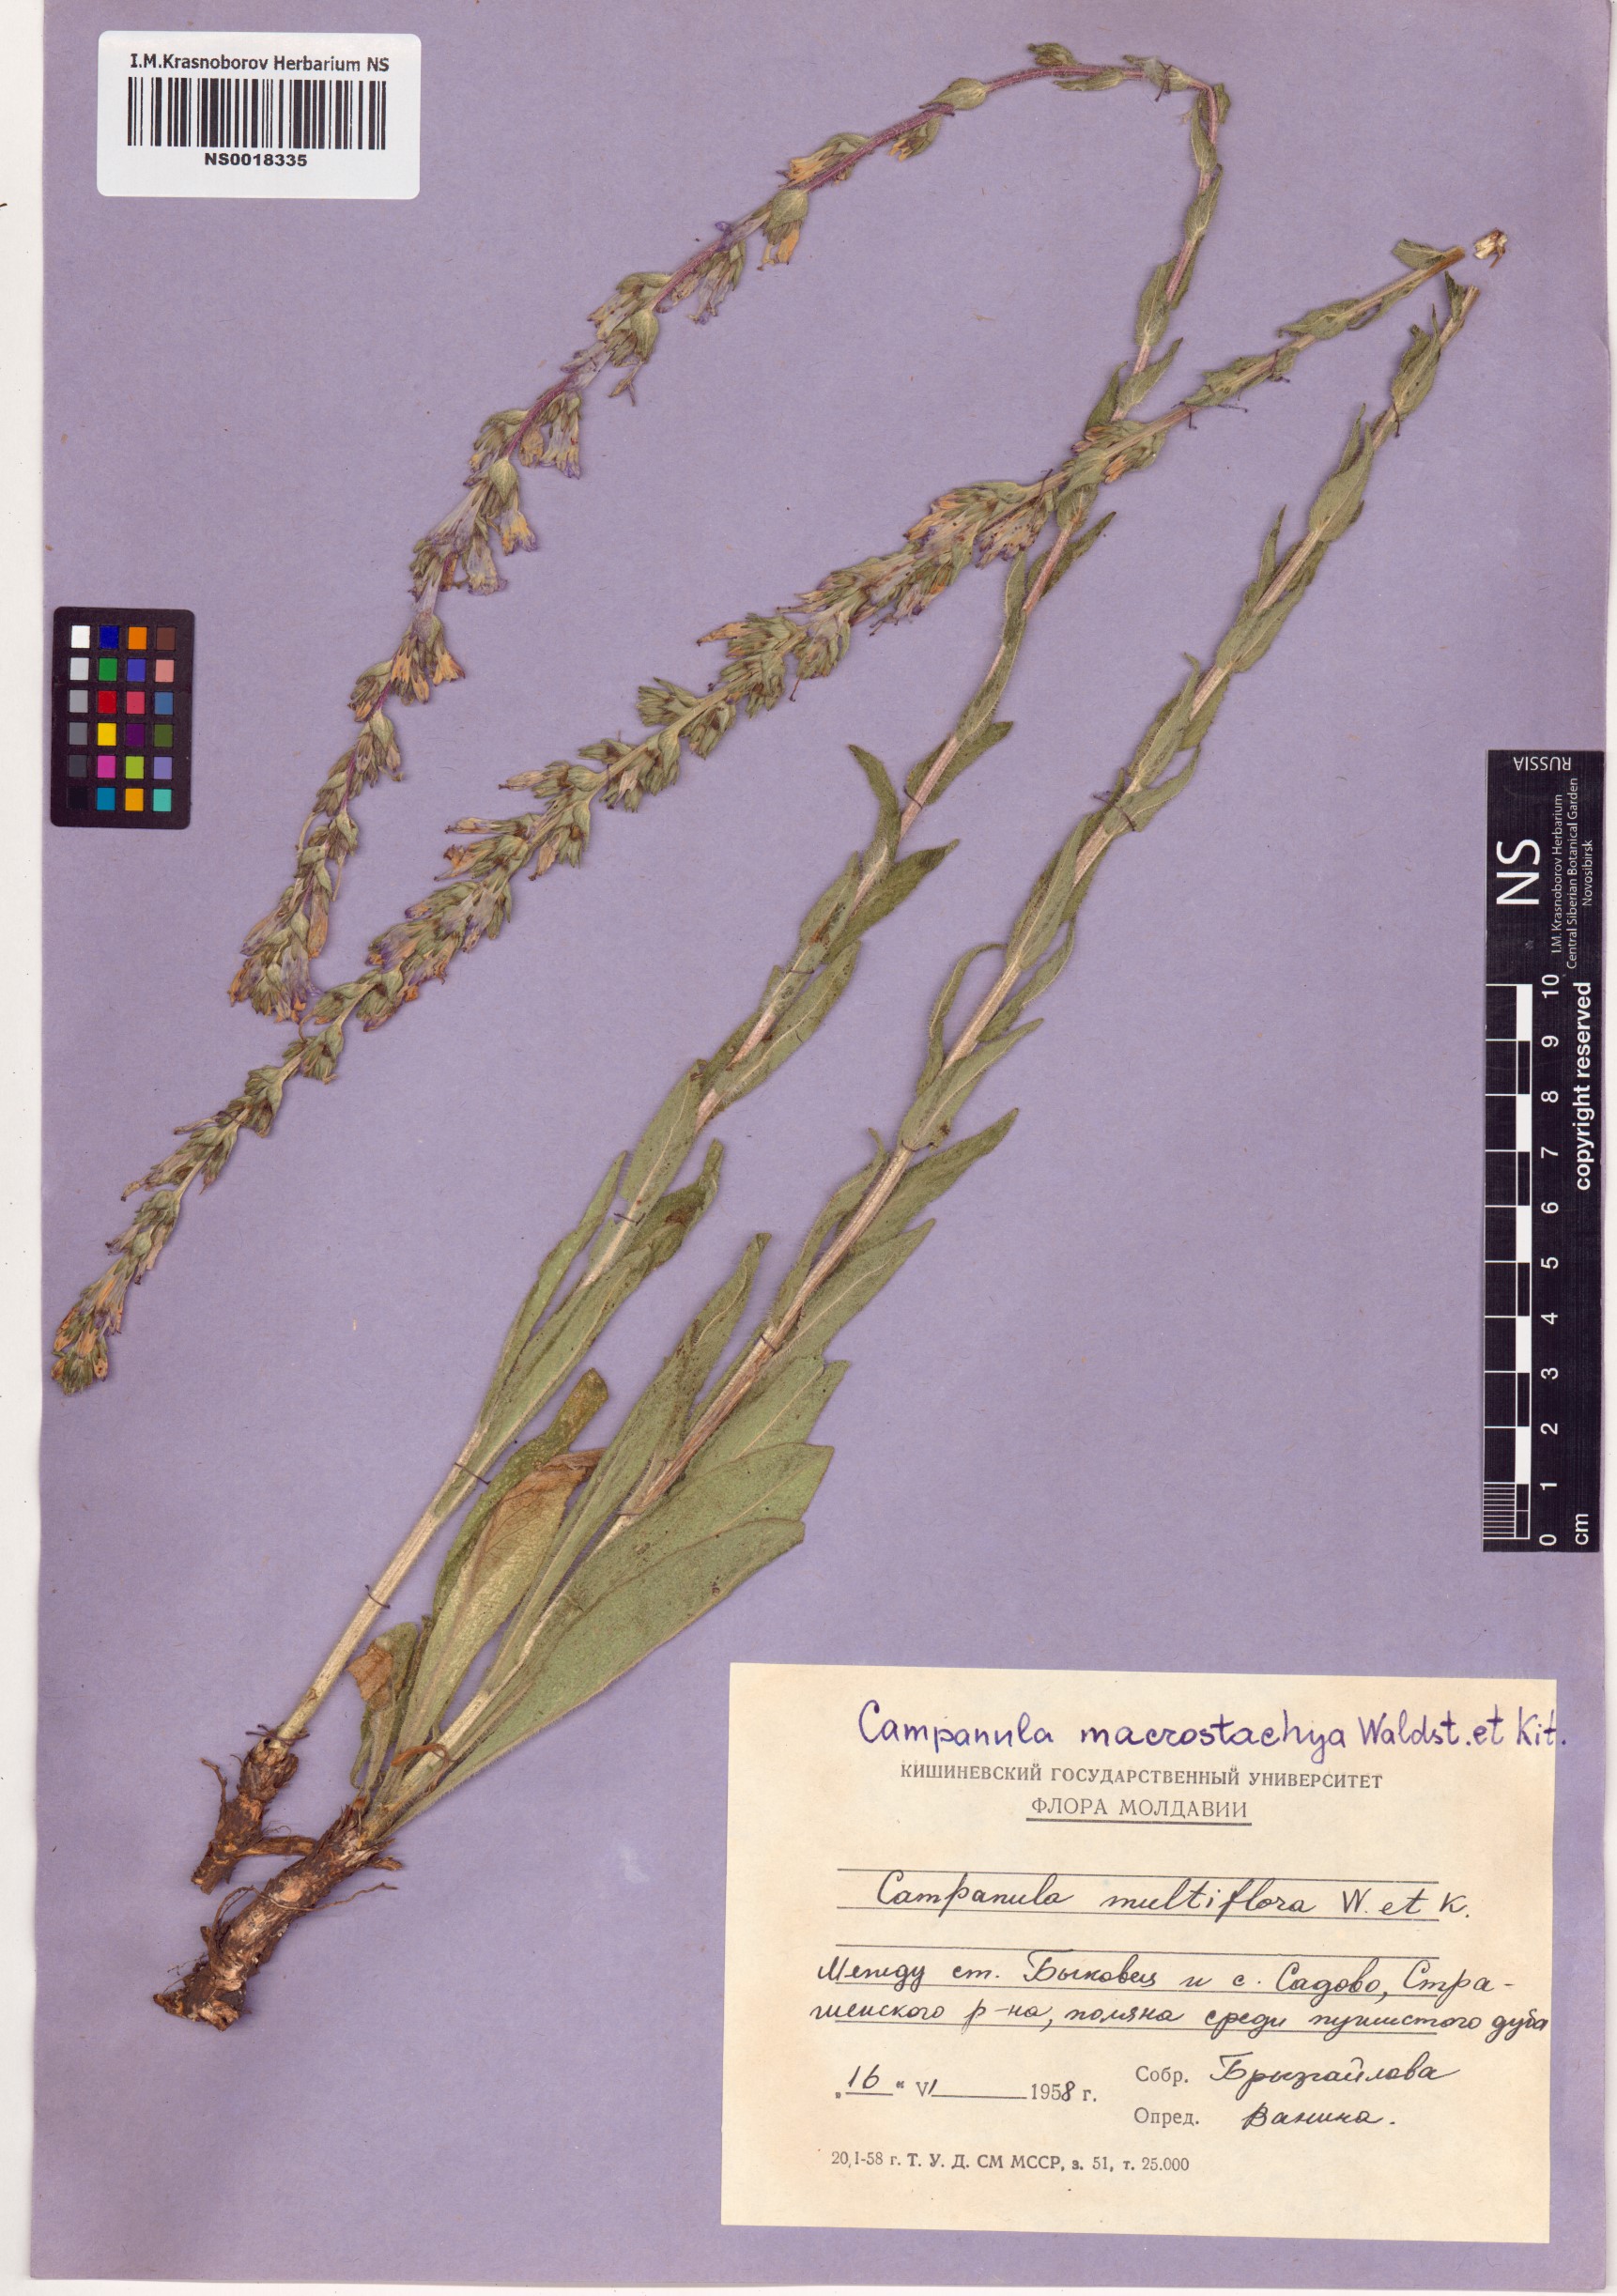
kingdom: Plantae
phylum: Tracheophyta
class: Magnoliopsida
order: Asterales
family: Campanulaceae
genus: Campanula
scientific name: Campanula macrostachya
